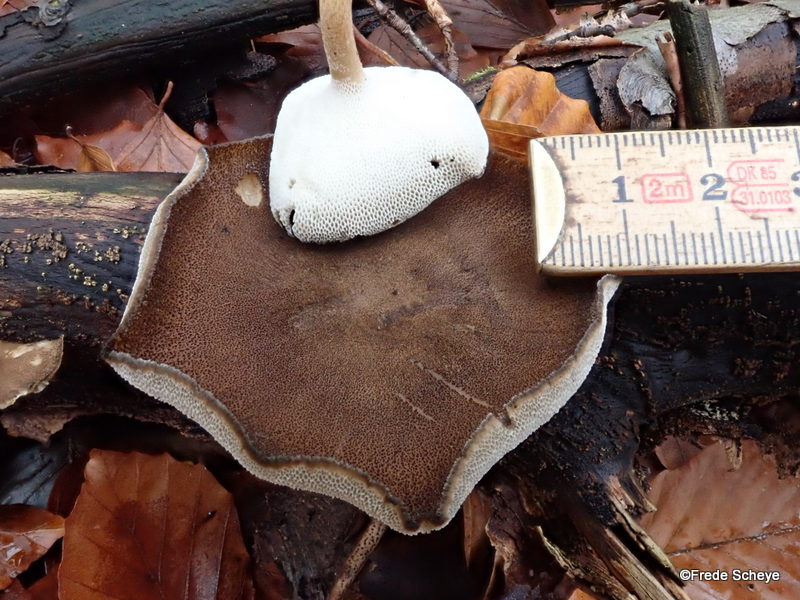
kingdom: Fungi
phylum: Basidiomycota
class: Agaricomycetes
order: Polyporales
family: Polyporaceae
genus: Lentinus
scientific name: Lentinus brumalis
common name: vinter-stilkporesvamp
